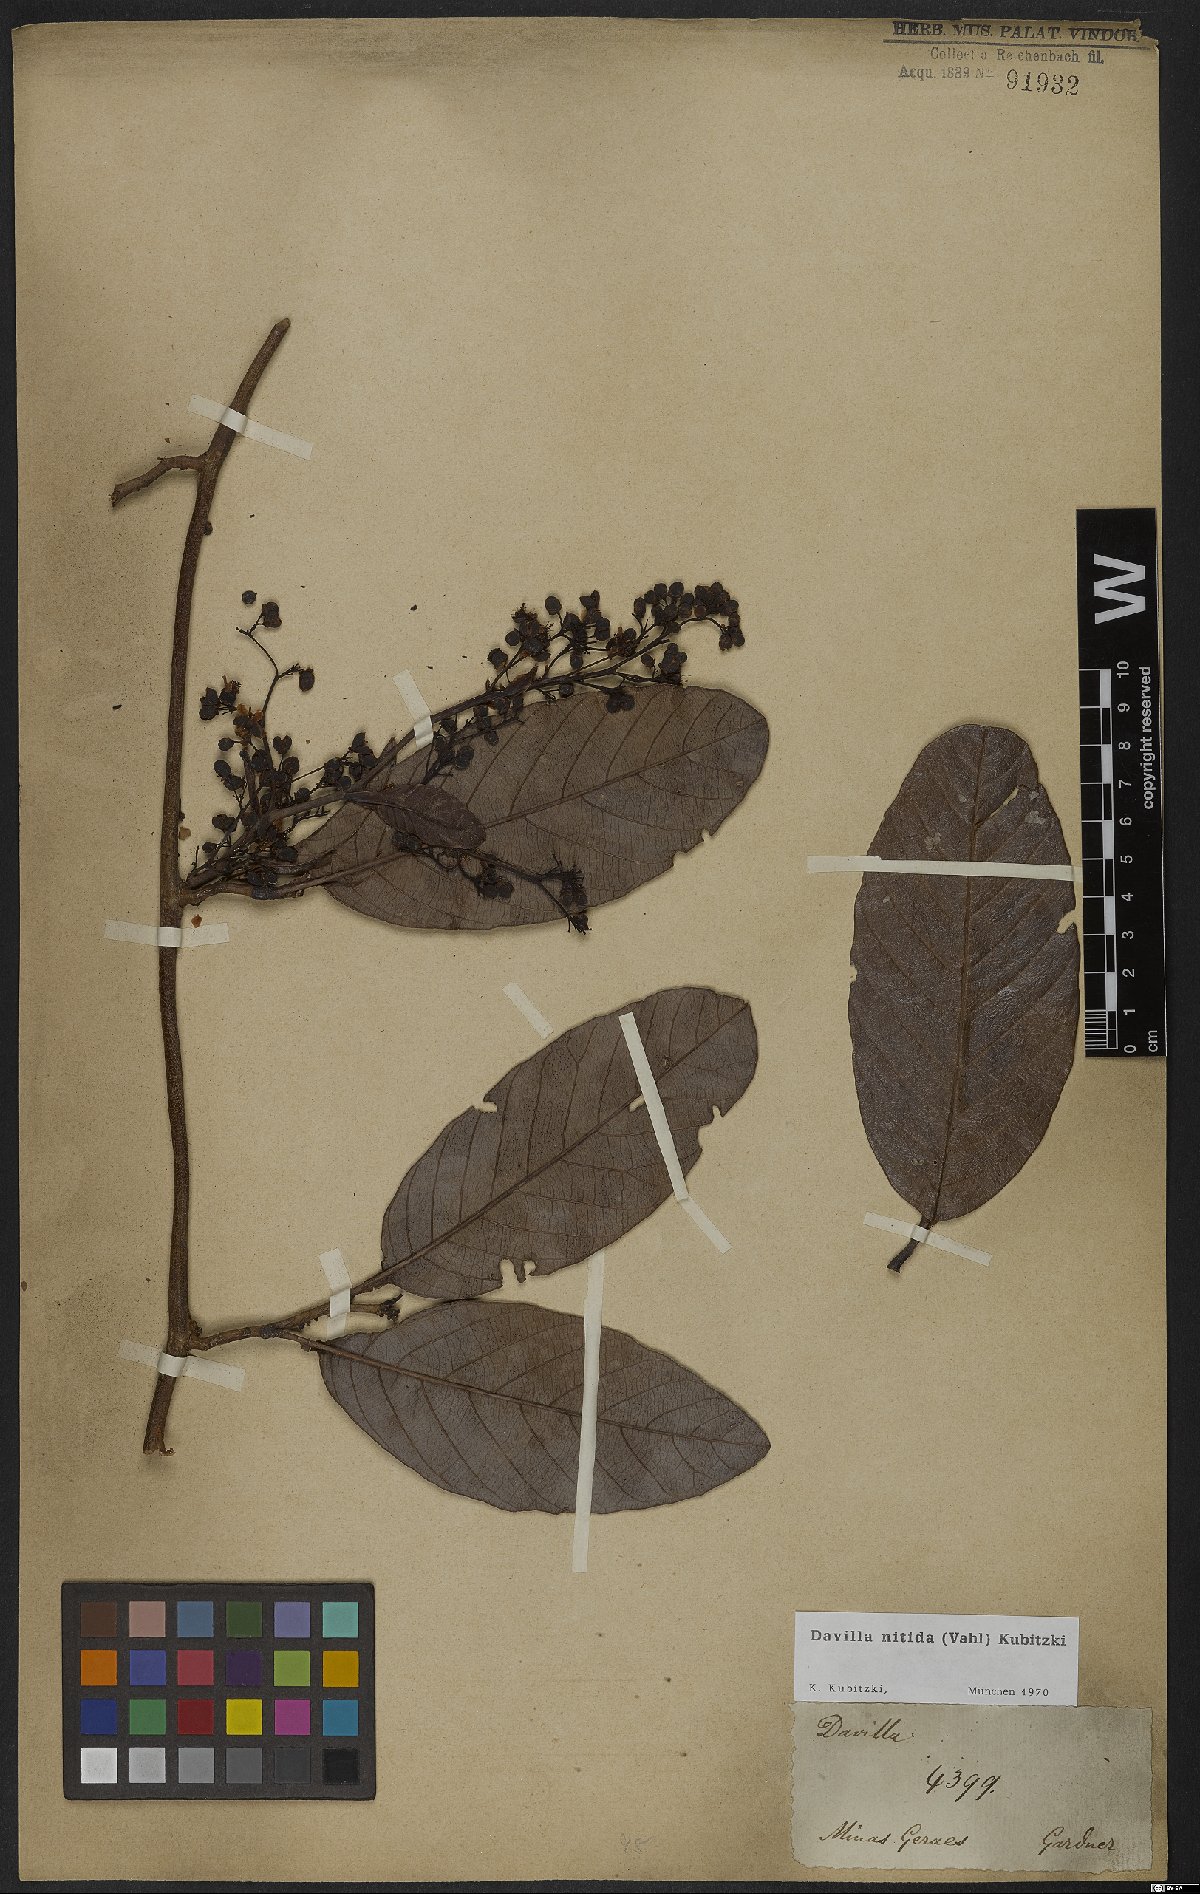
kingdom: Plantae
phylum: Tracheophyta
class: Magnoliopsida
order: Dilleniales
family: Dilleniaceae
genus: Davilla
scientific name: Davilla nitida
